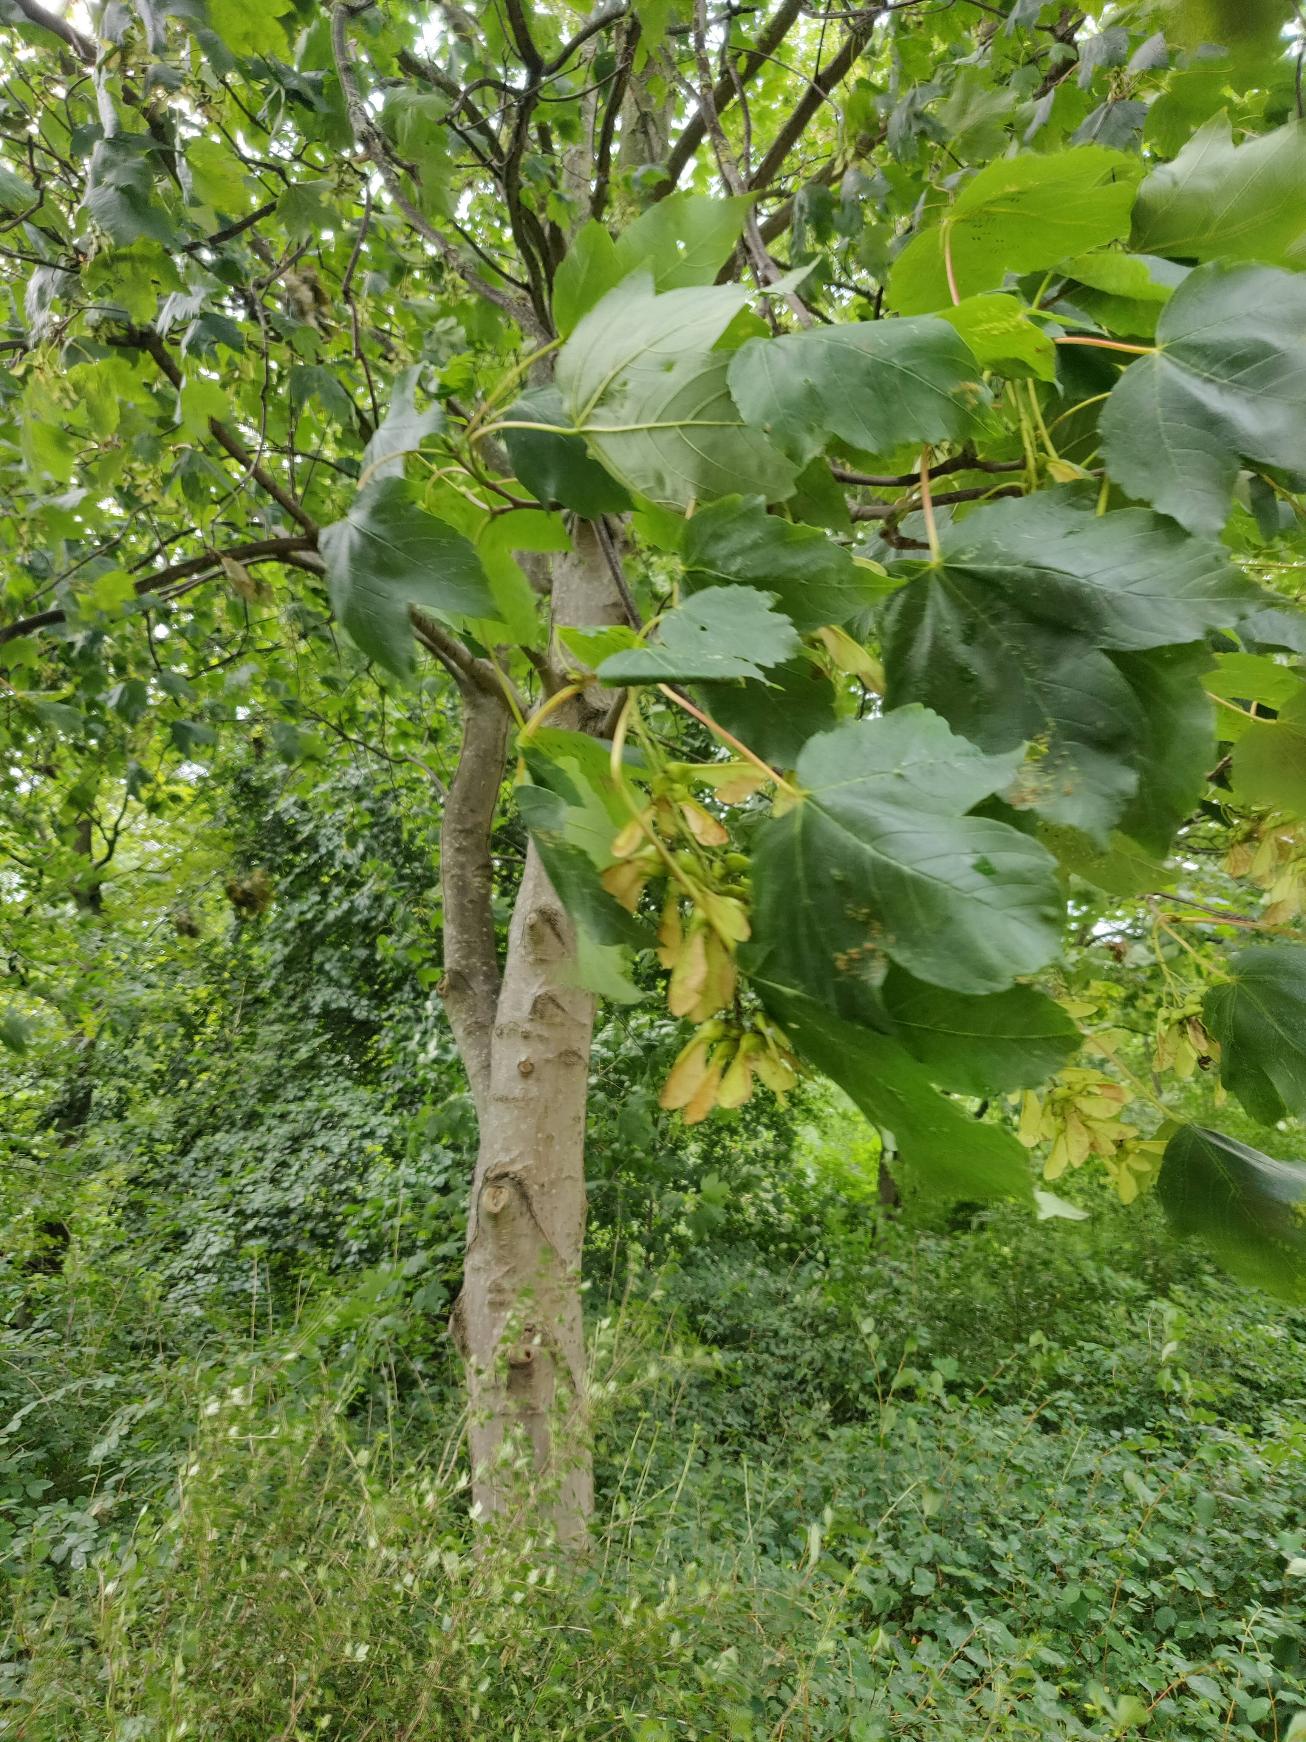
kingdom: Plantae
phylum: Tracheophyta
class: Magnoliopsida
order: Sapindales
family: Sapindaceae
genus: Acer
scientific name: Acer pseudoplatanus
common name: Ahorn
